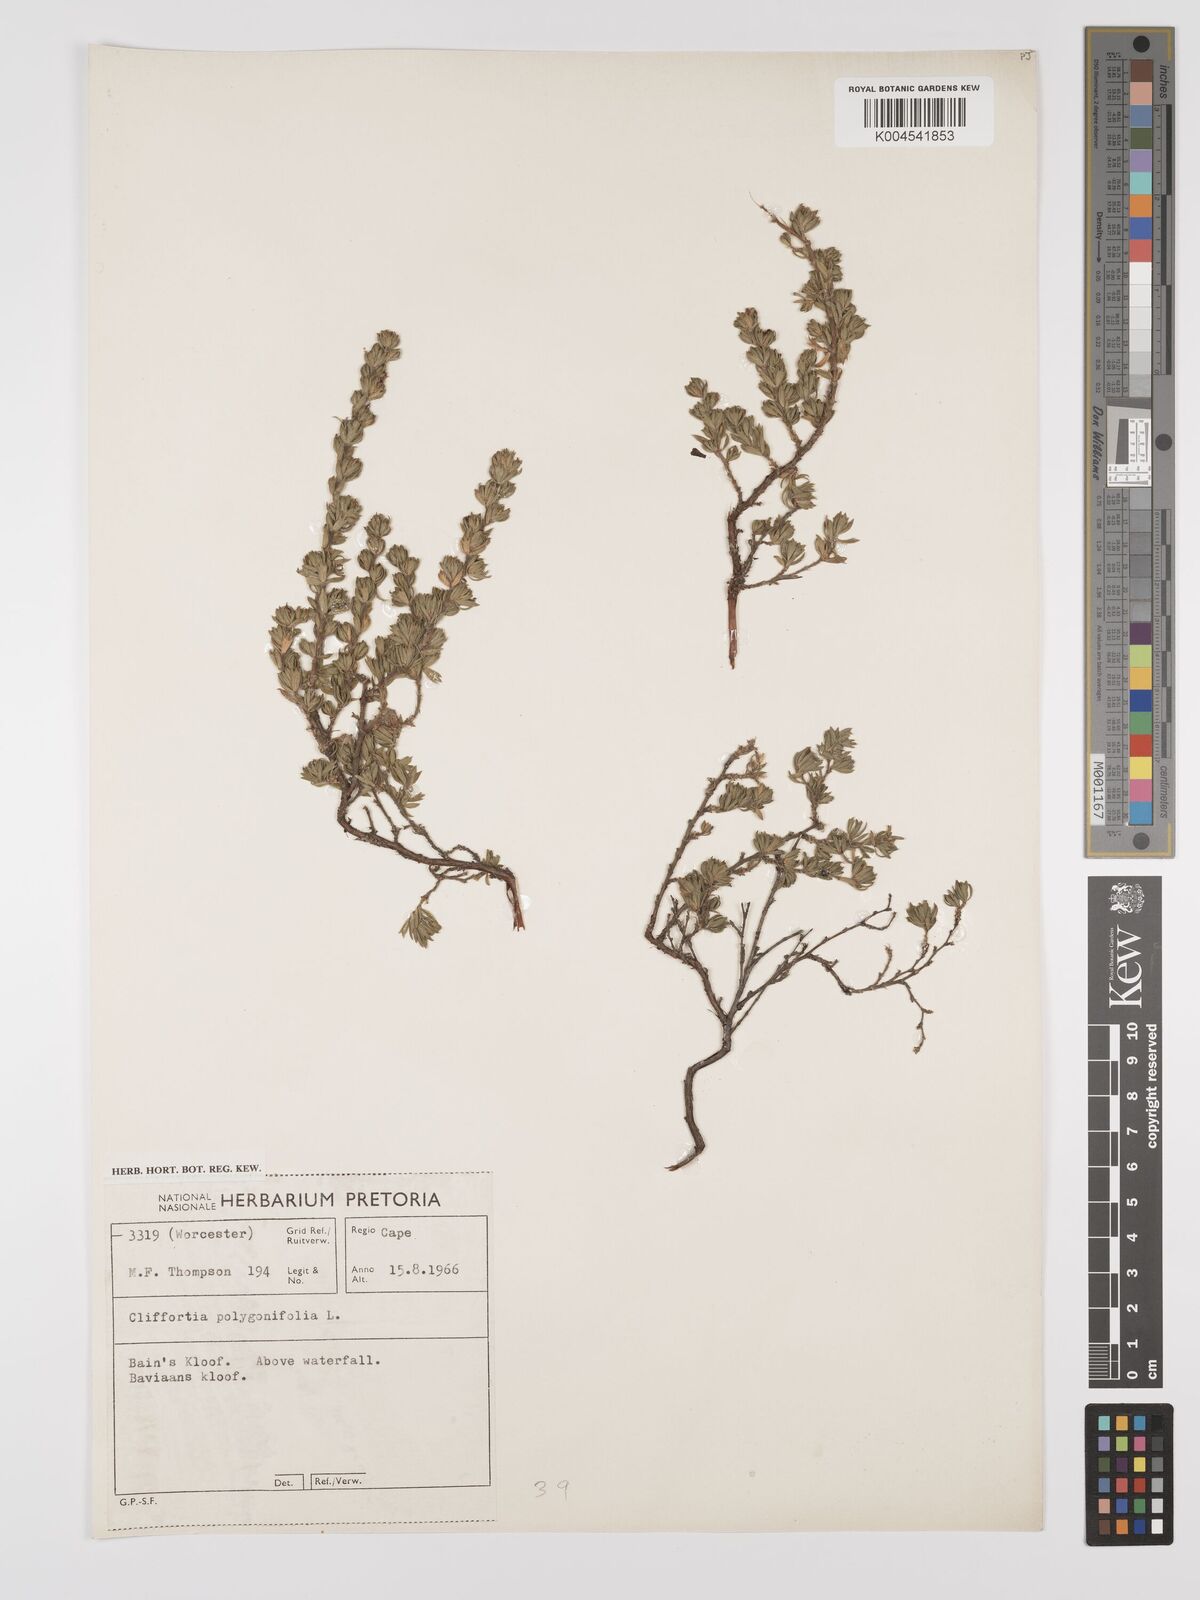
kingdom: Plantae
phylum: Tracheophyta
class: Magnoliopsida
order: Rosales
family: Rosaceae
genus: Cliffortia
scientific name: Cliffortia polygonifolia
